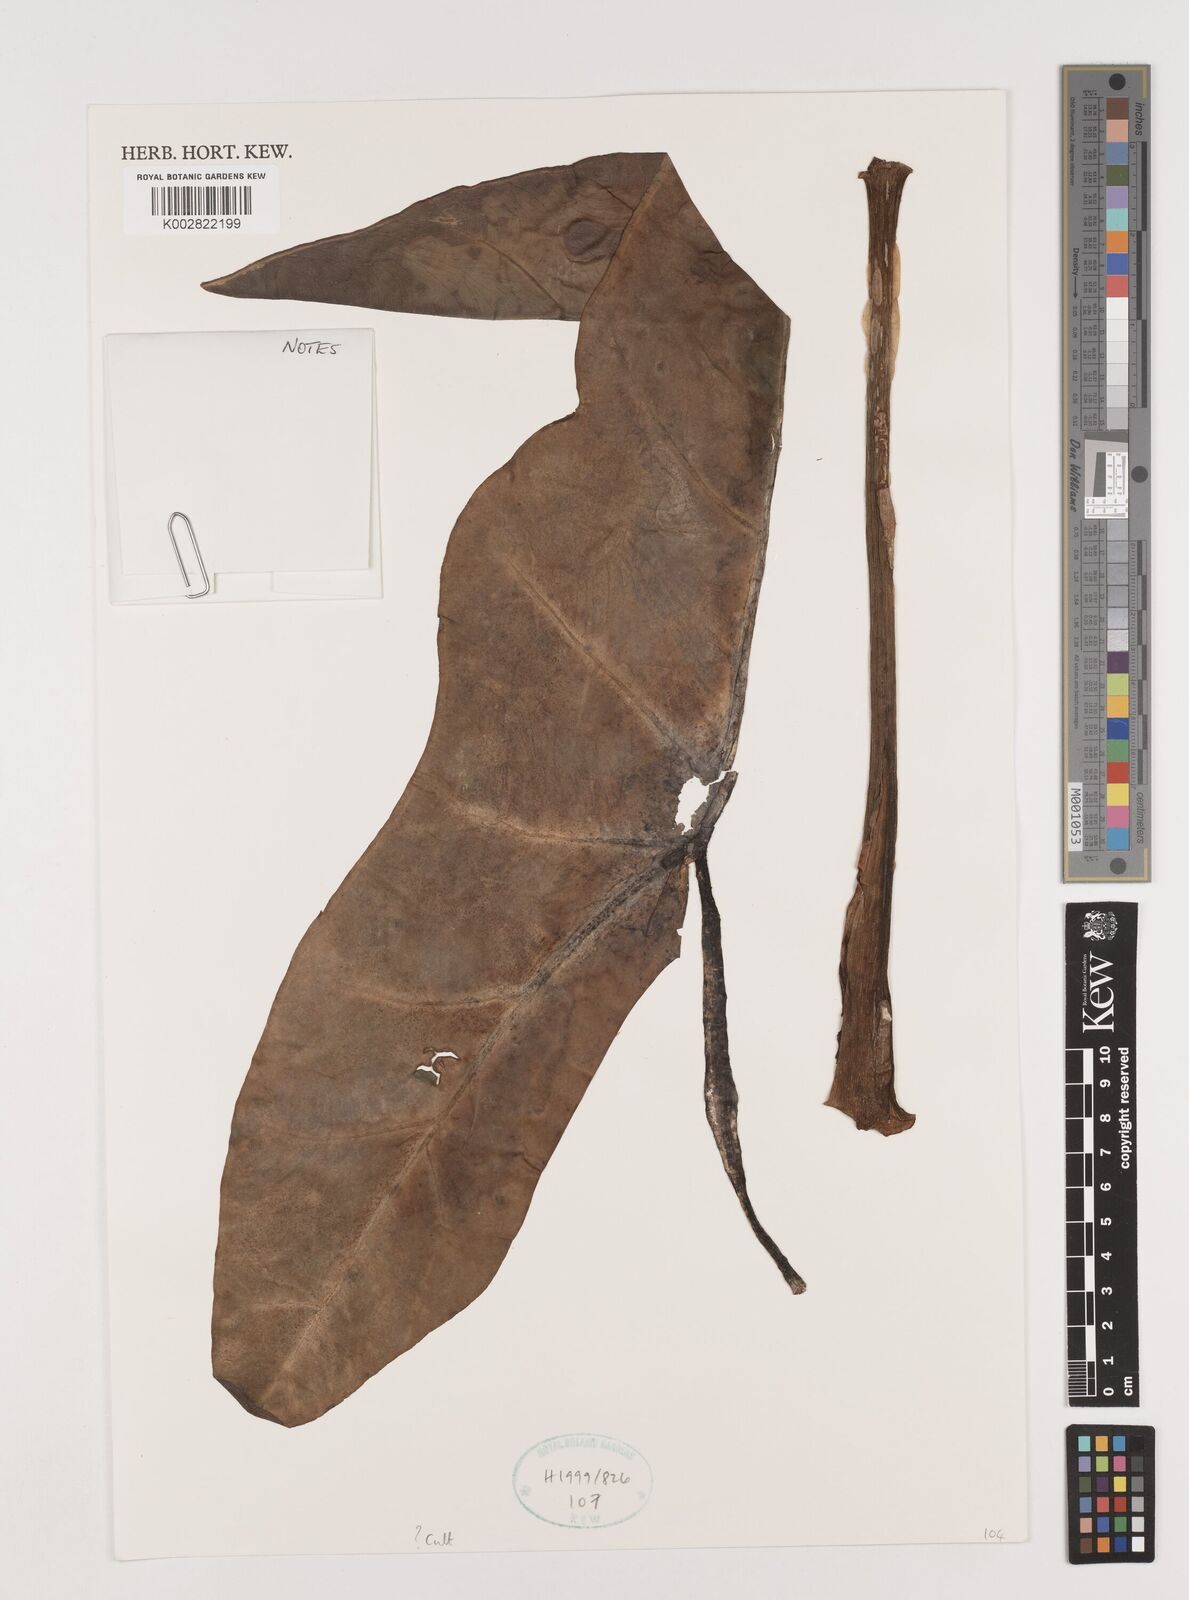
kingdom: Plantae
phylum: Tracheophyta
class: Liliopsida
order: Alismatales
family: Araceae
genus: Alocasia
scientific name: Alocasia macrorrhizos
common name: Giant taro
